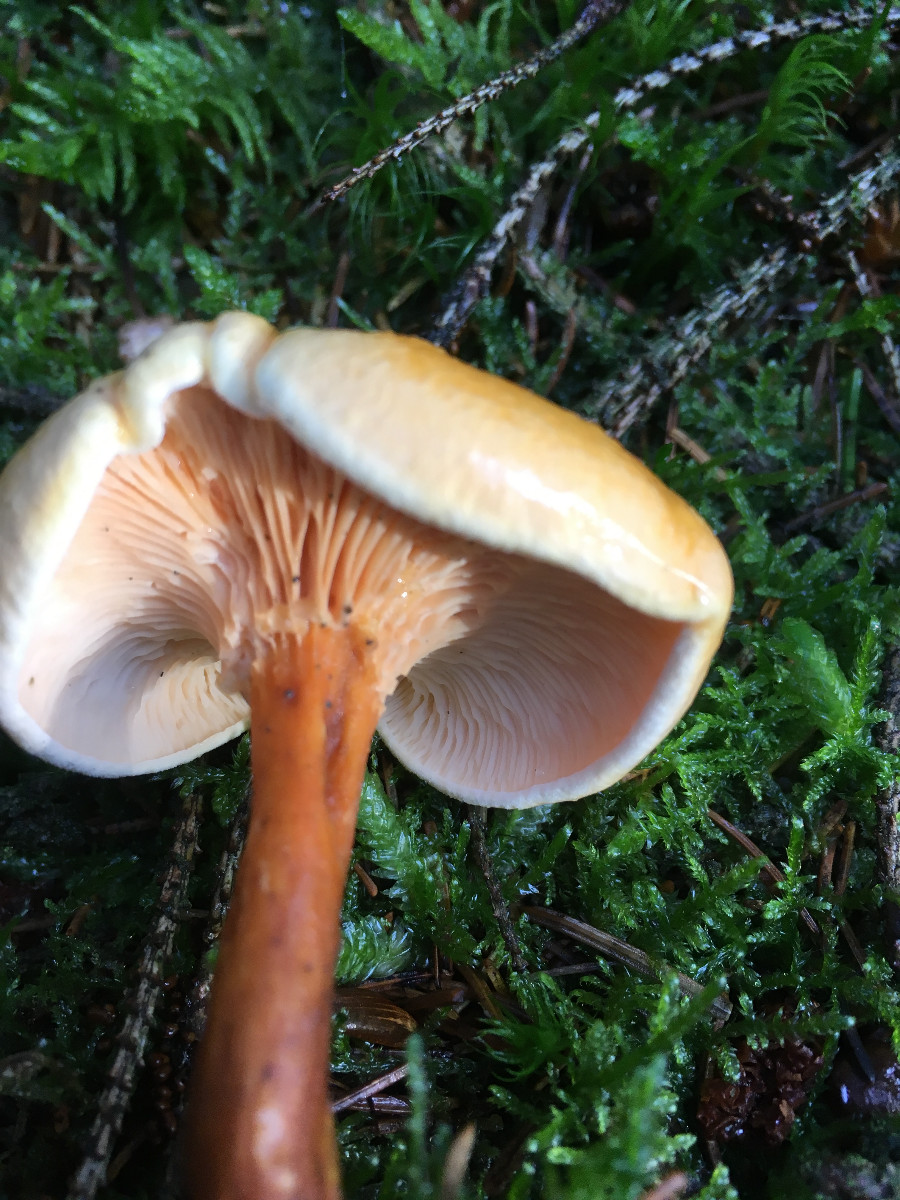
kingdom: Fungi
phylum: Basidiomycota
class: Agaricomycetes
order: Boletales
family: Hygrophoropsidaceae
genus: Hygrophoropsis
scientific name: Hygrophoropsis aurantiaca
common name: almindelig orangekantarel
